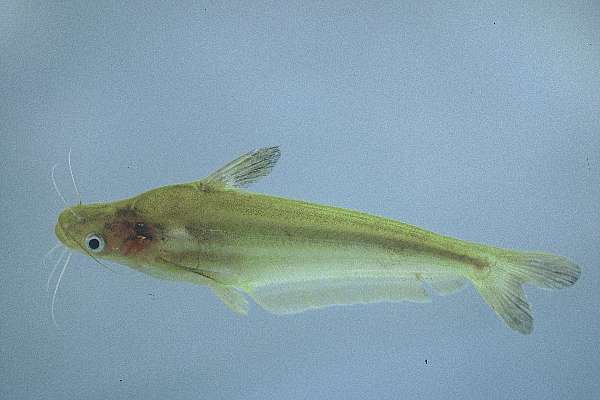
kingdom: Animalia
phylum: Chordata
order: Siluriformes
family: Schilbeidae
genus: Schilbe
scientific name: Schilbe intermedius
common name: Silver catfish
